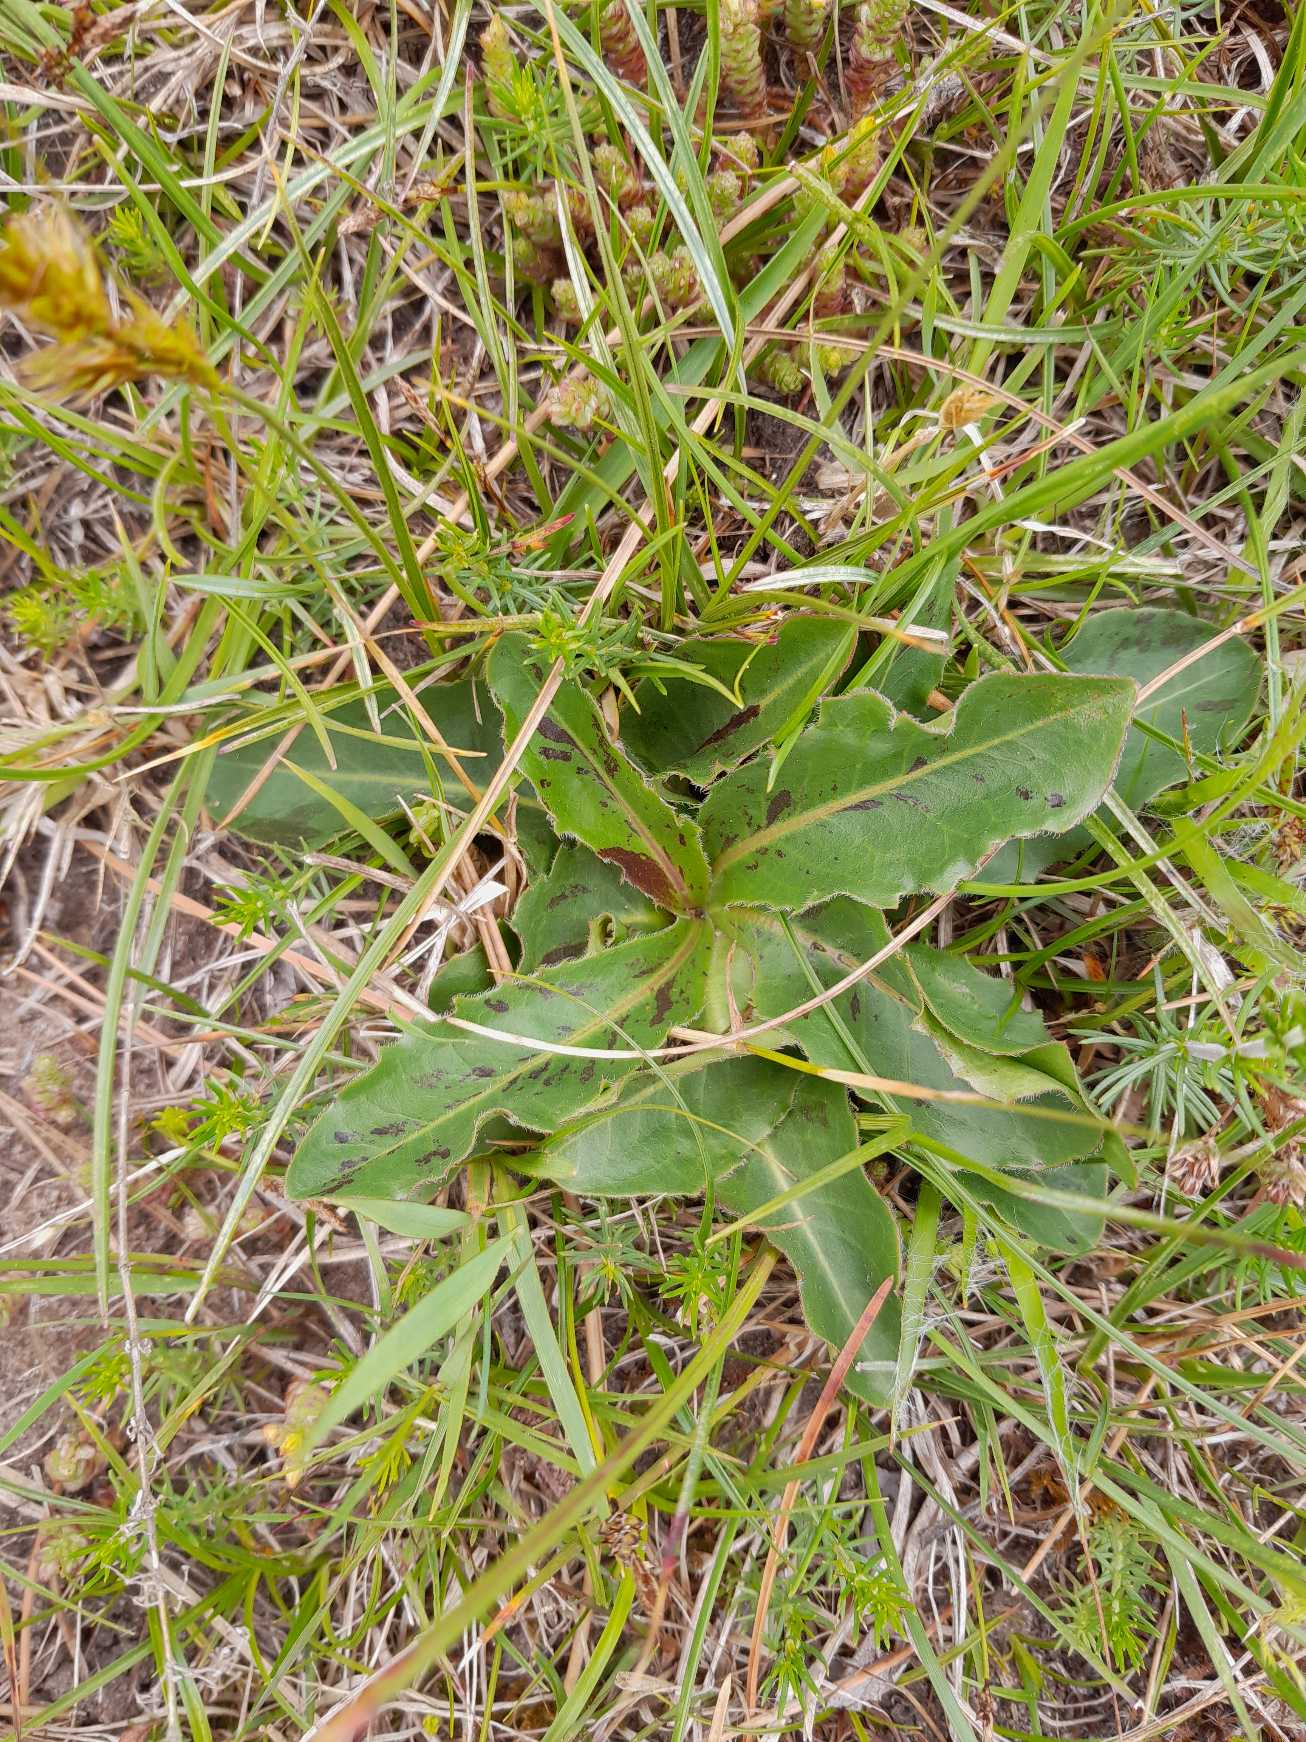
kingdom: Plantae
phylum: Tracheophyta
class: Magnoliopsida
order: Asterales
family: Asteraceae
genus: Trommsdorffia
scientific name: Trommsdorffia maculata
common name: Plettet kongepen
